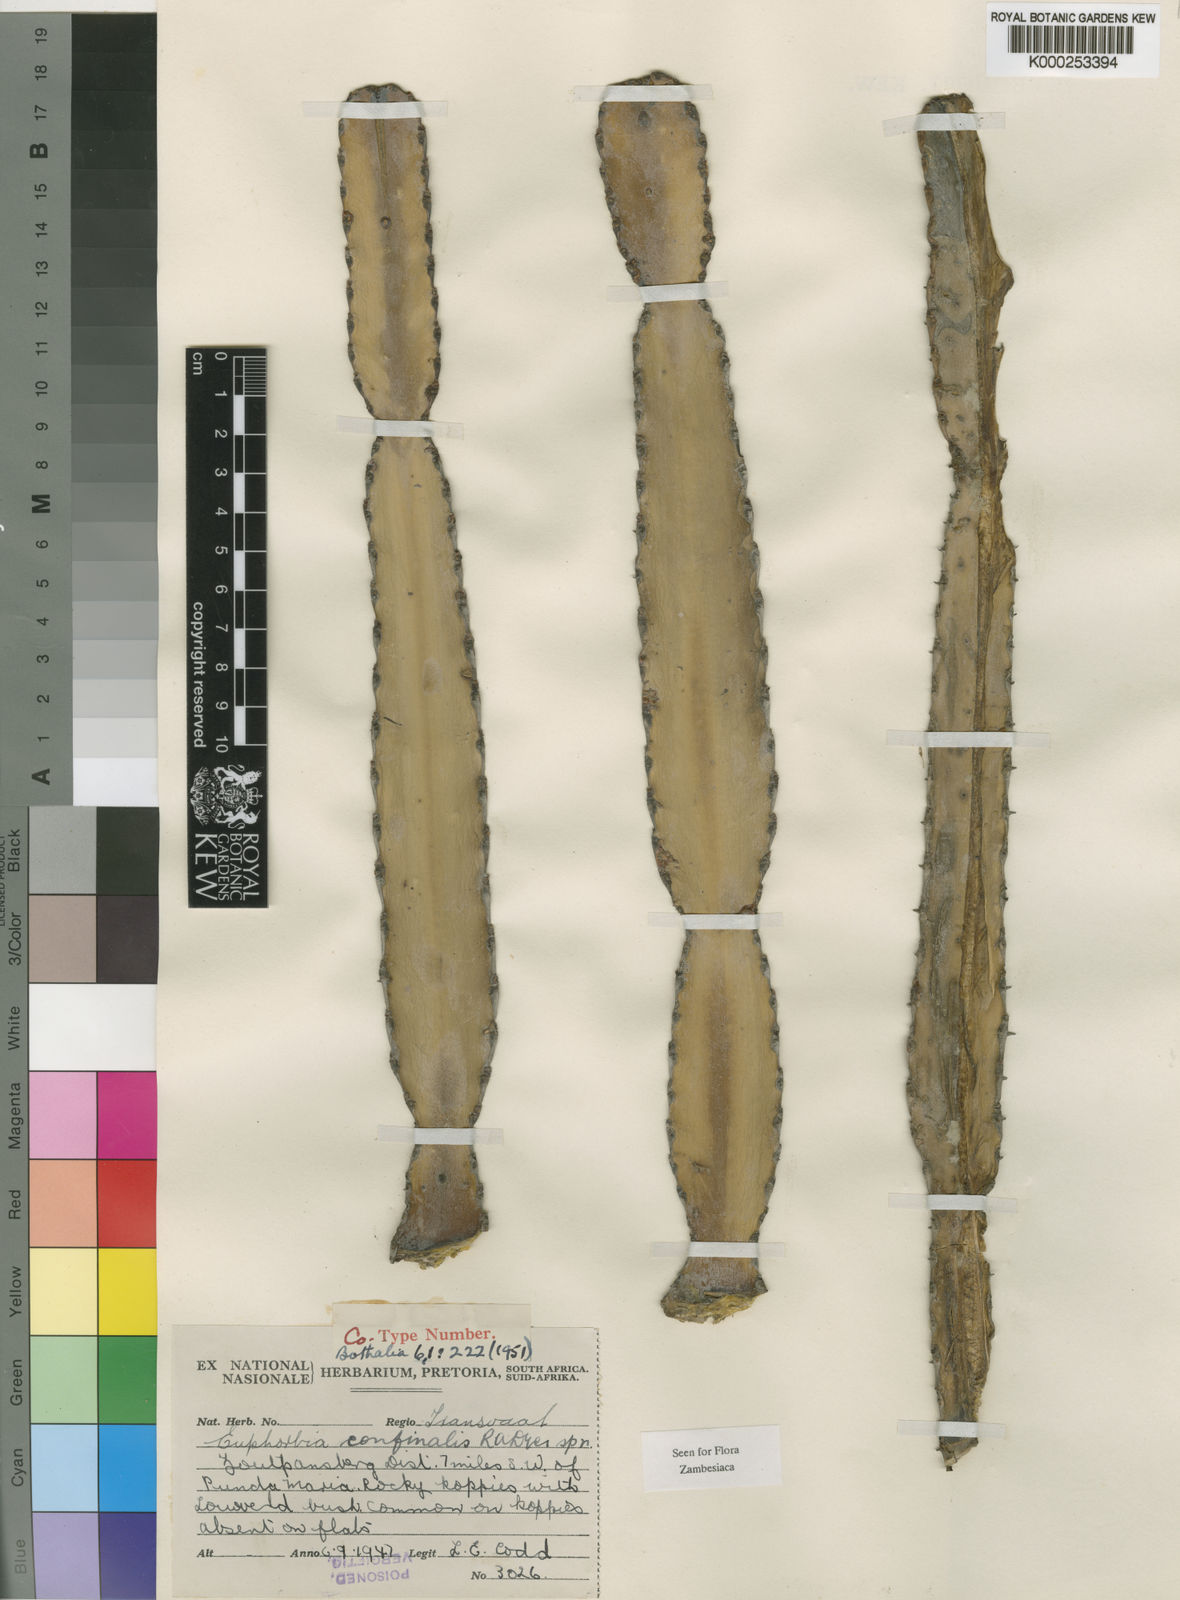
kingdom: Plantae
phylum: Tracheophyta
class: Magnoliopsida
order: Malpighiales
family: Euphorbiaceae
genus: Euphorbia
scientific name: Euphorbia confinalis
